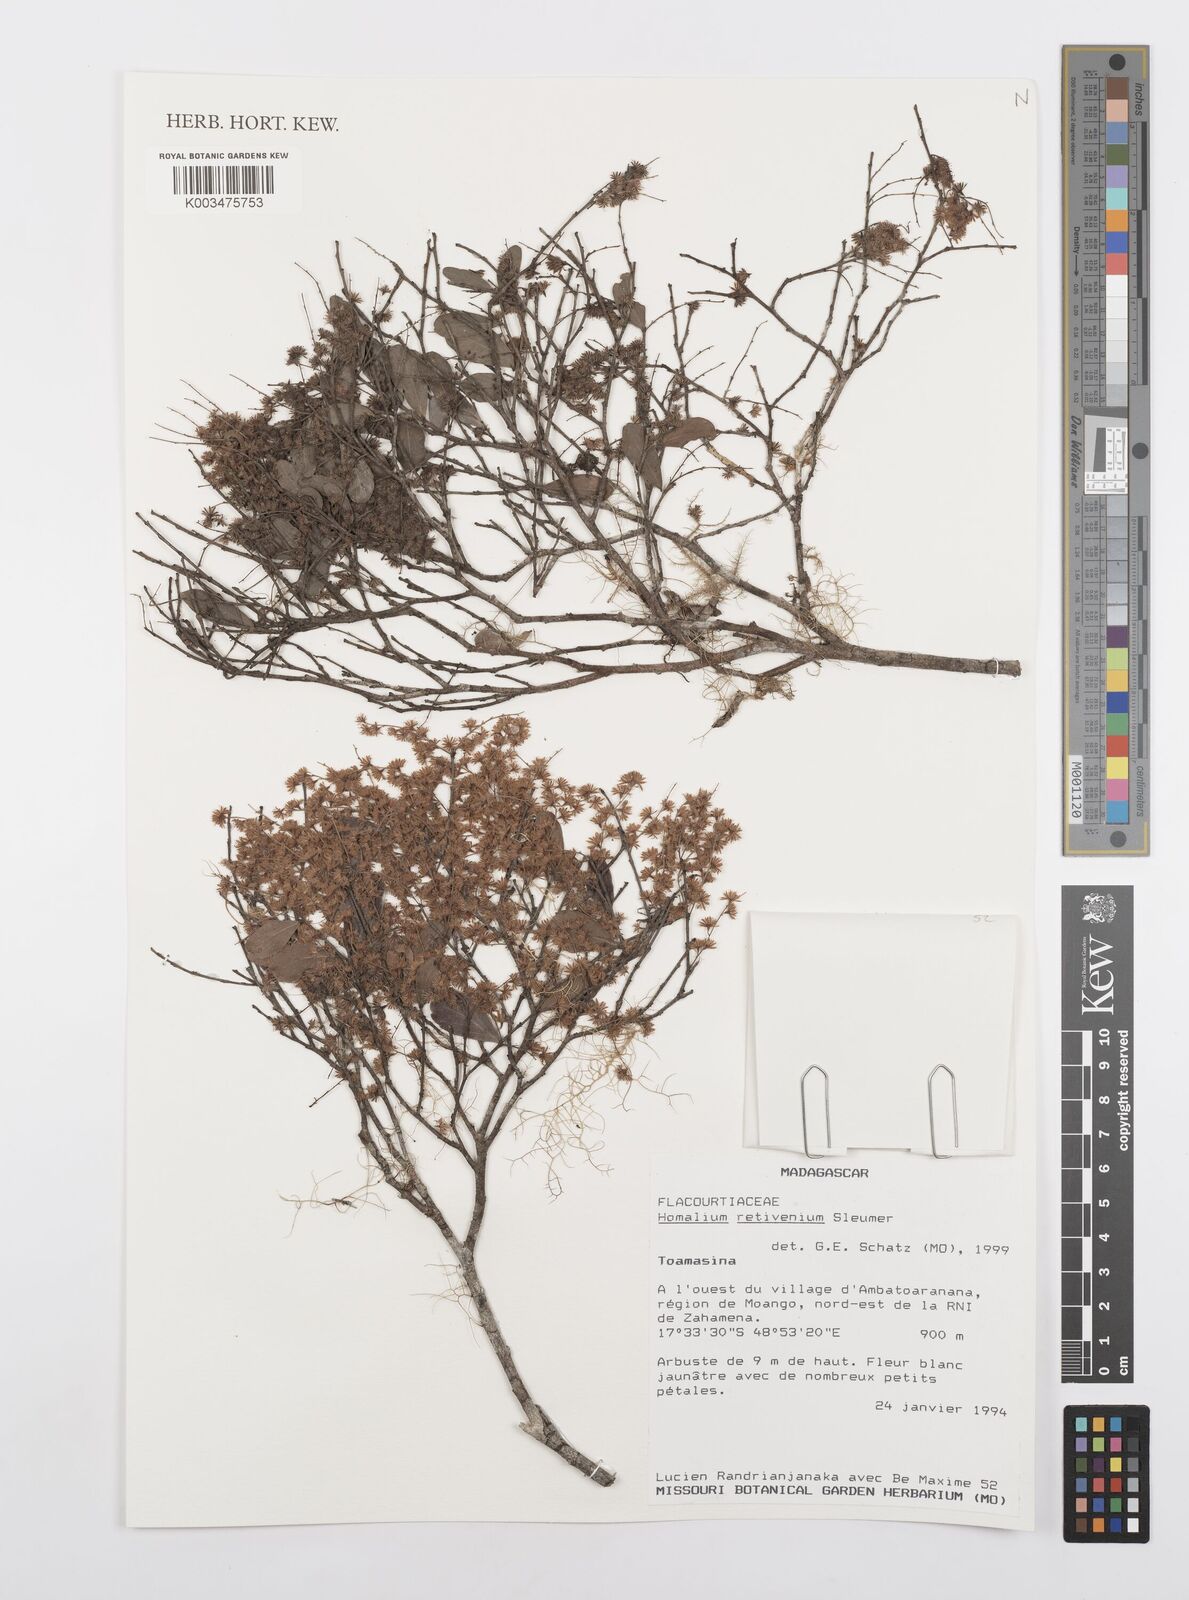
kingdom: Plantae
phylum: Tracheophyta
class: Magnoliopsida
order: Malpighiales
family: Salicaceae
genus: Homalium
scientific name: Homalium retivenium
